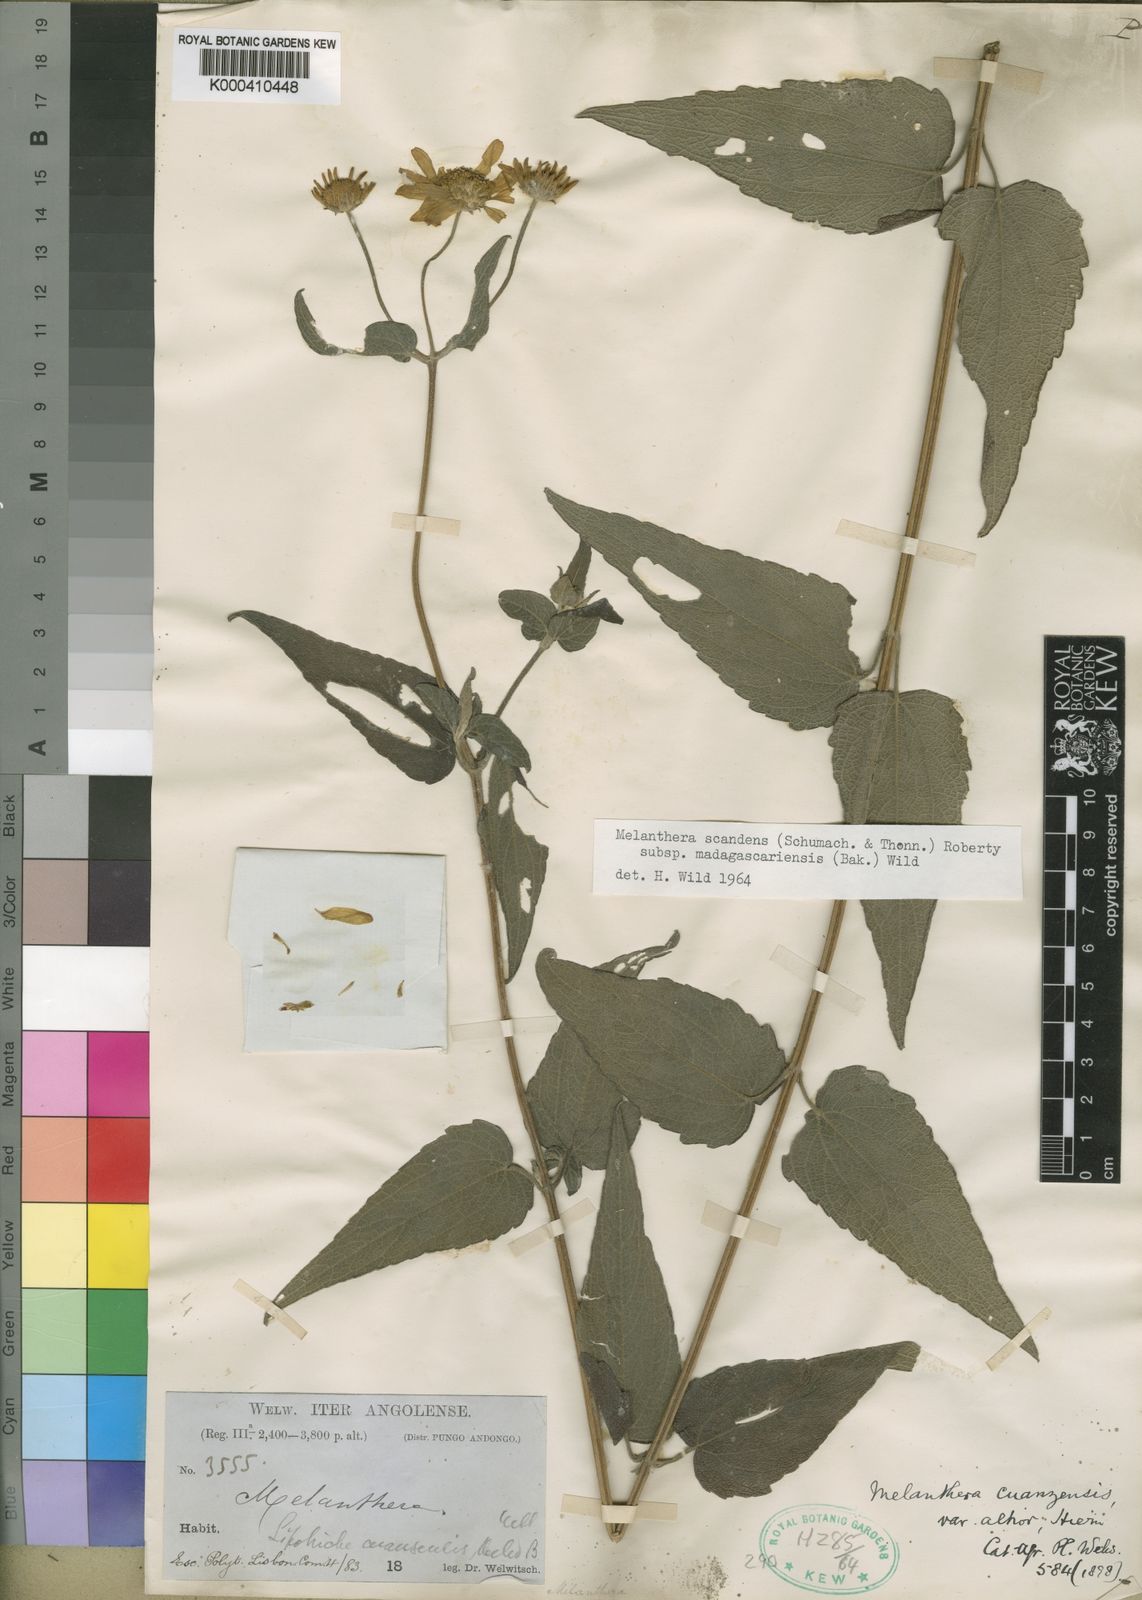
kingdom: Plantae
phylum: Tracheophyta
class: Magnoliopsida
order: Asterales
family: Asteraceae
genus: Melanthera
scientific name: Melanthera
